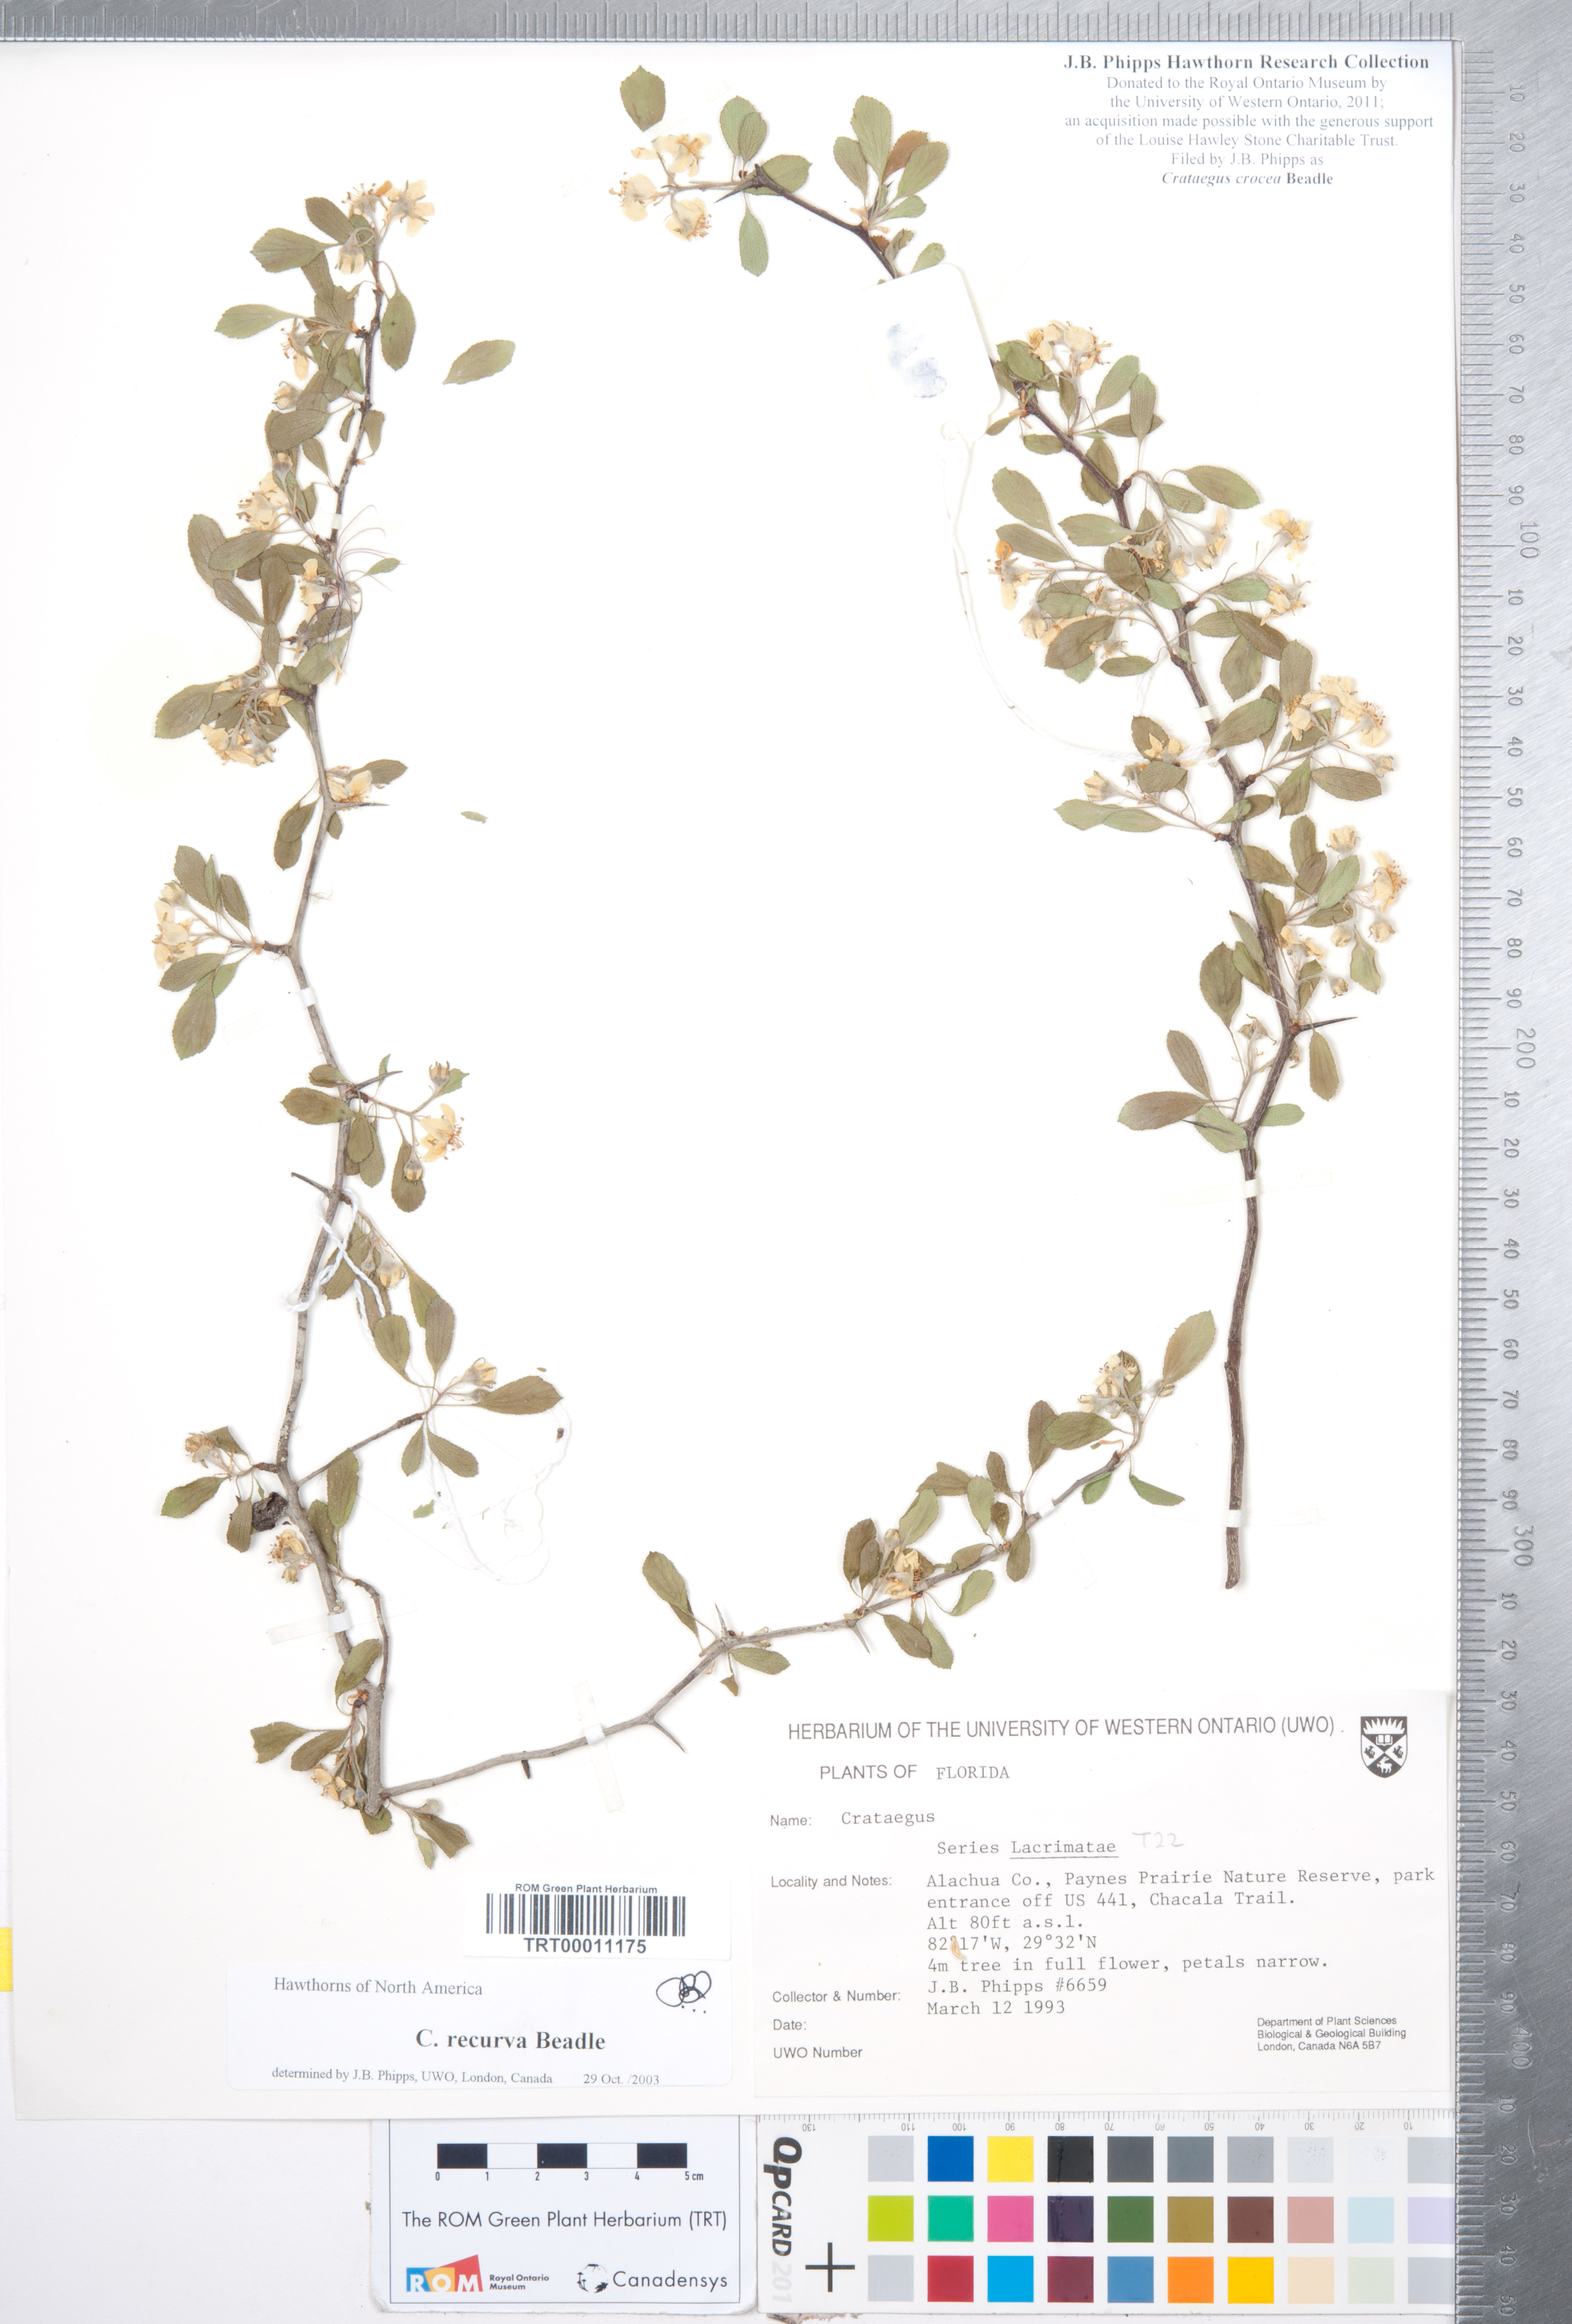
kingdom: Plantae
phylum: Tracheophyta
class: Magnoliopsida
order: Rosales
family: Rosaceae
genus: Crataegus
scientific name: Crataegus lassa
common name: Florida hawthorn
